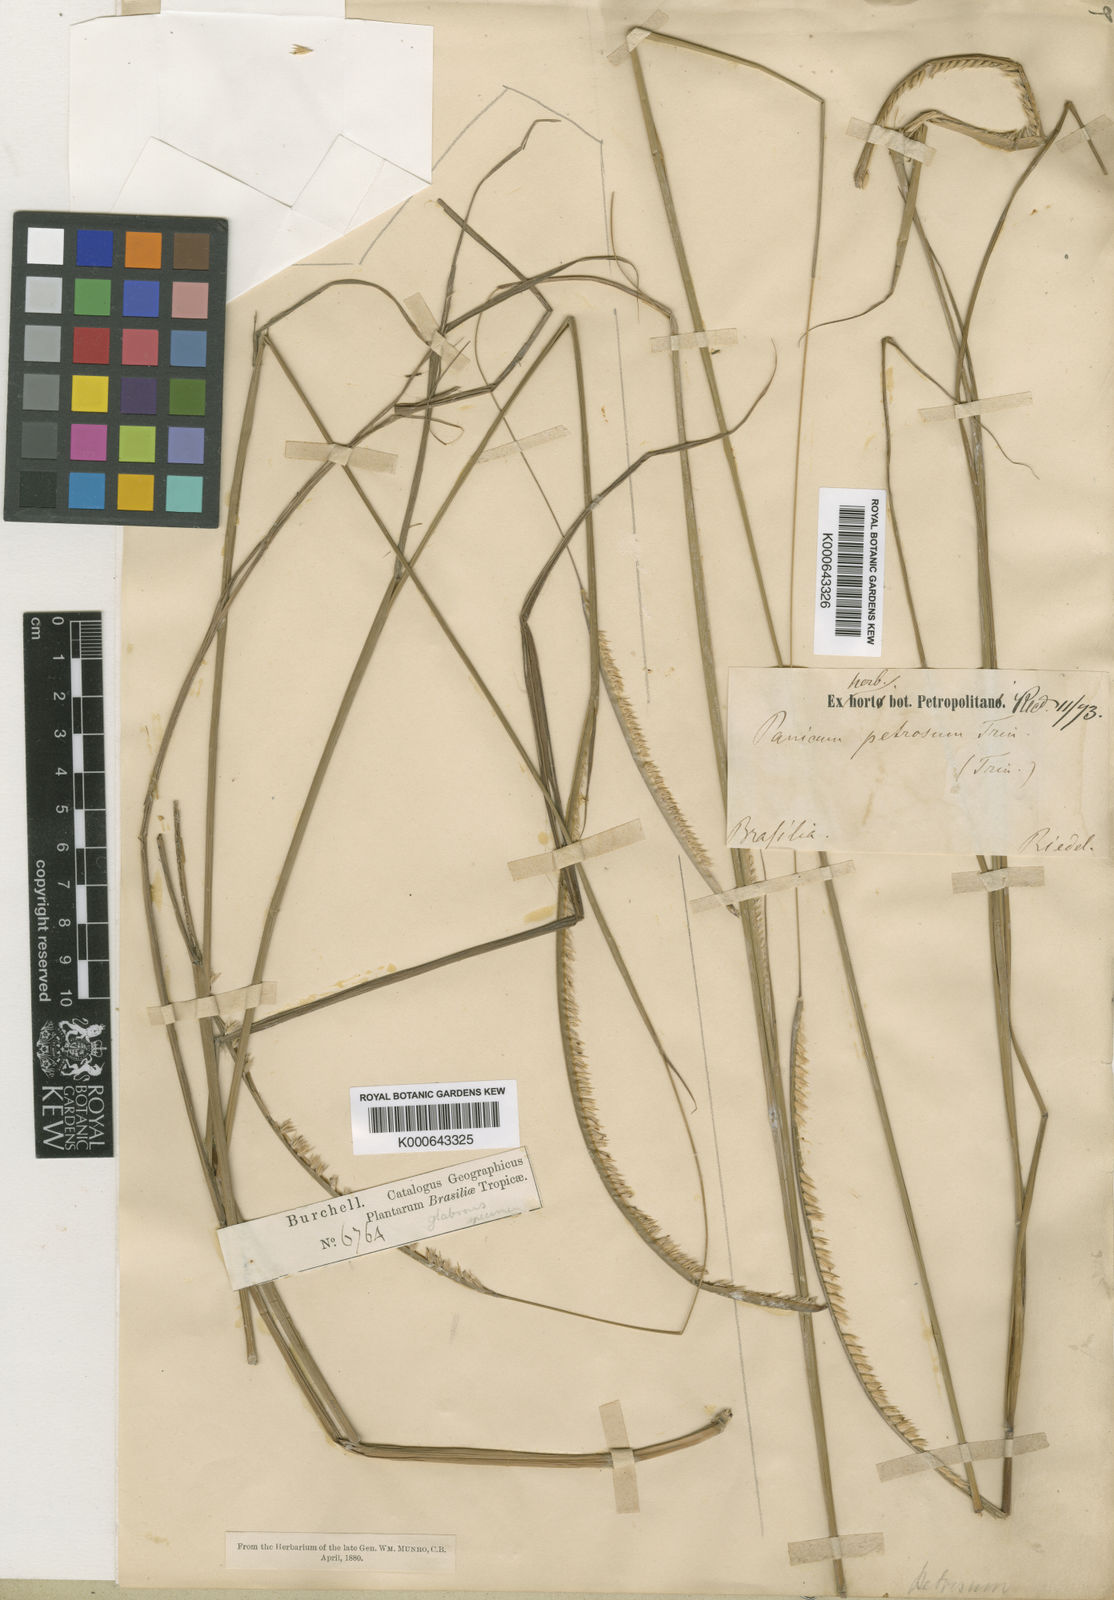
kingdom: Plantae
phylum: Tracheophyta
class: Liliopsida
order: Poales
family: Poaceae
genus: Paspalum
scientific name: Paspalum foliiforme
